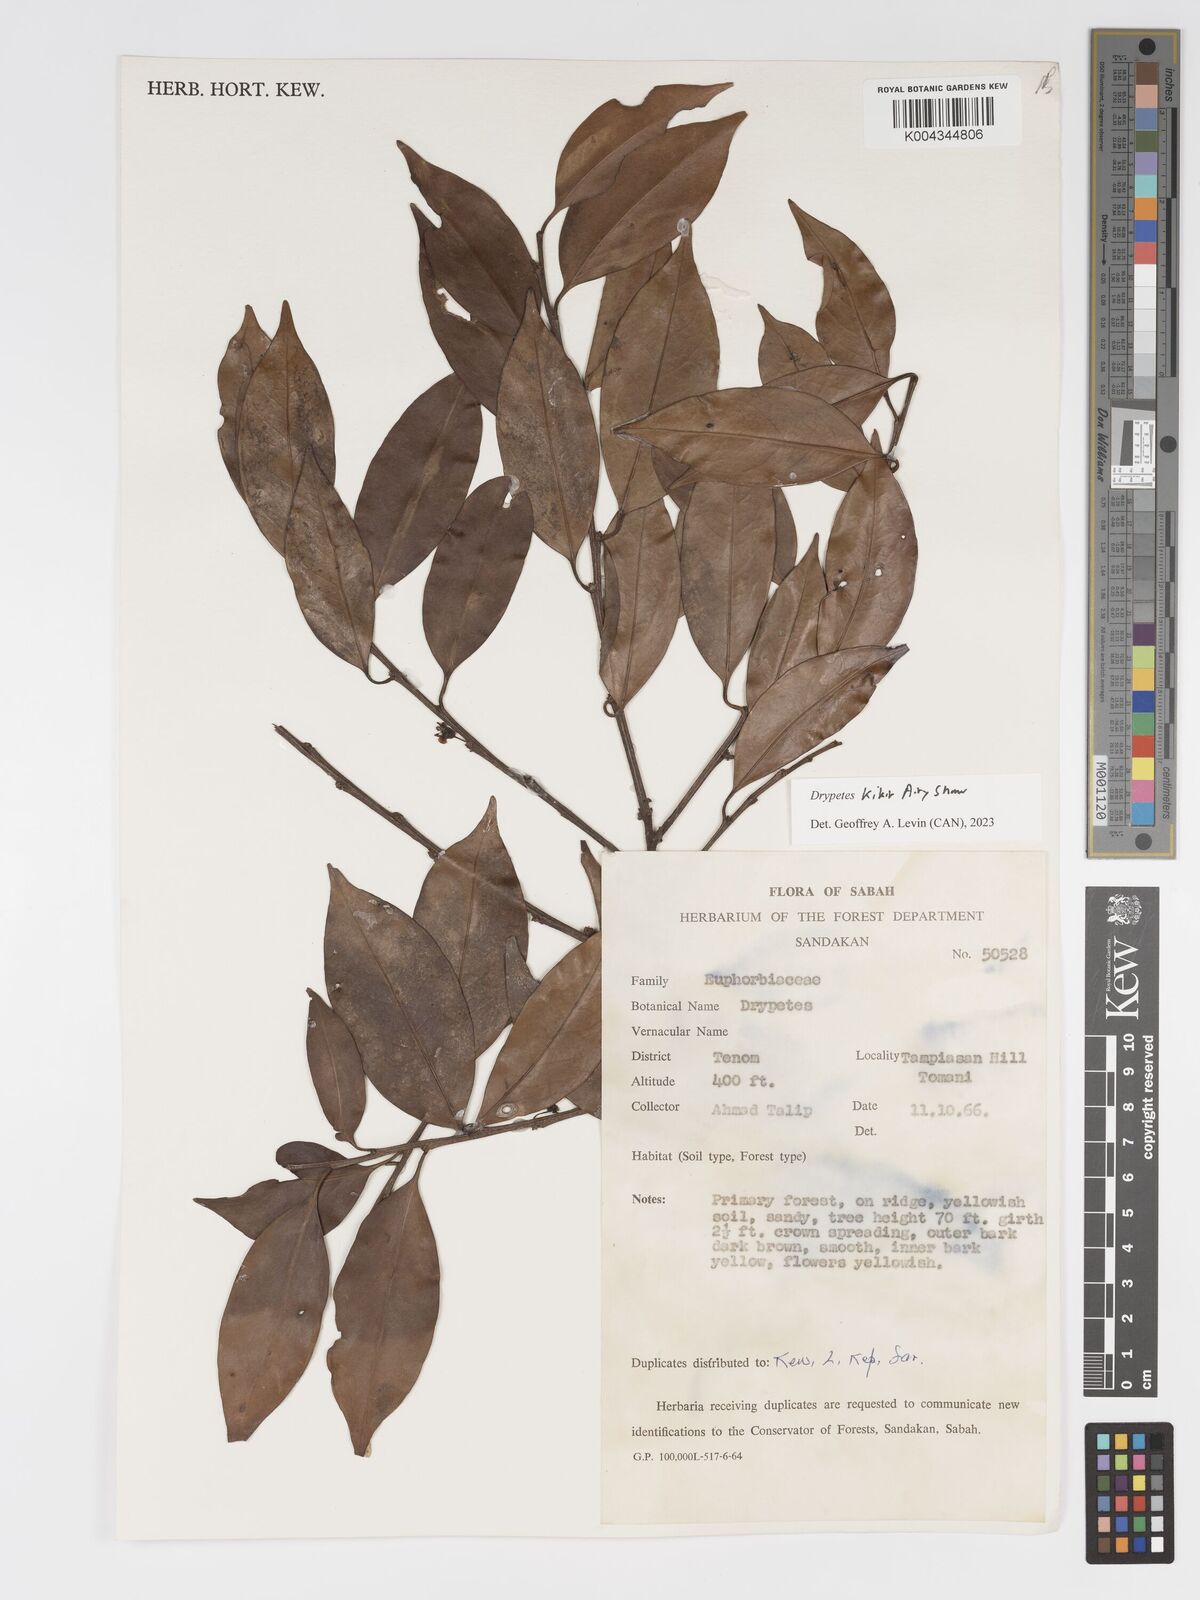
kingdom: Plantae
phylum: Tracheophyta
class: Magnoliopsida
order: Malpighiales
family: Putranjivaceae
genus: Drypetes
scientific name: Drypetes kikir
